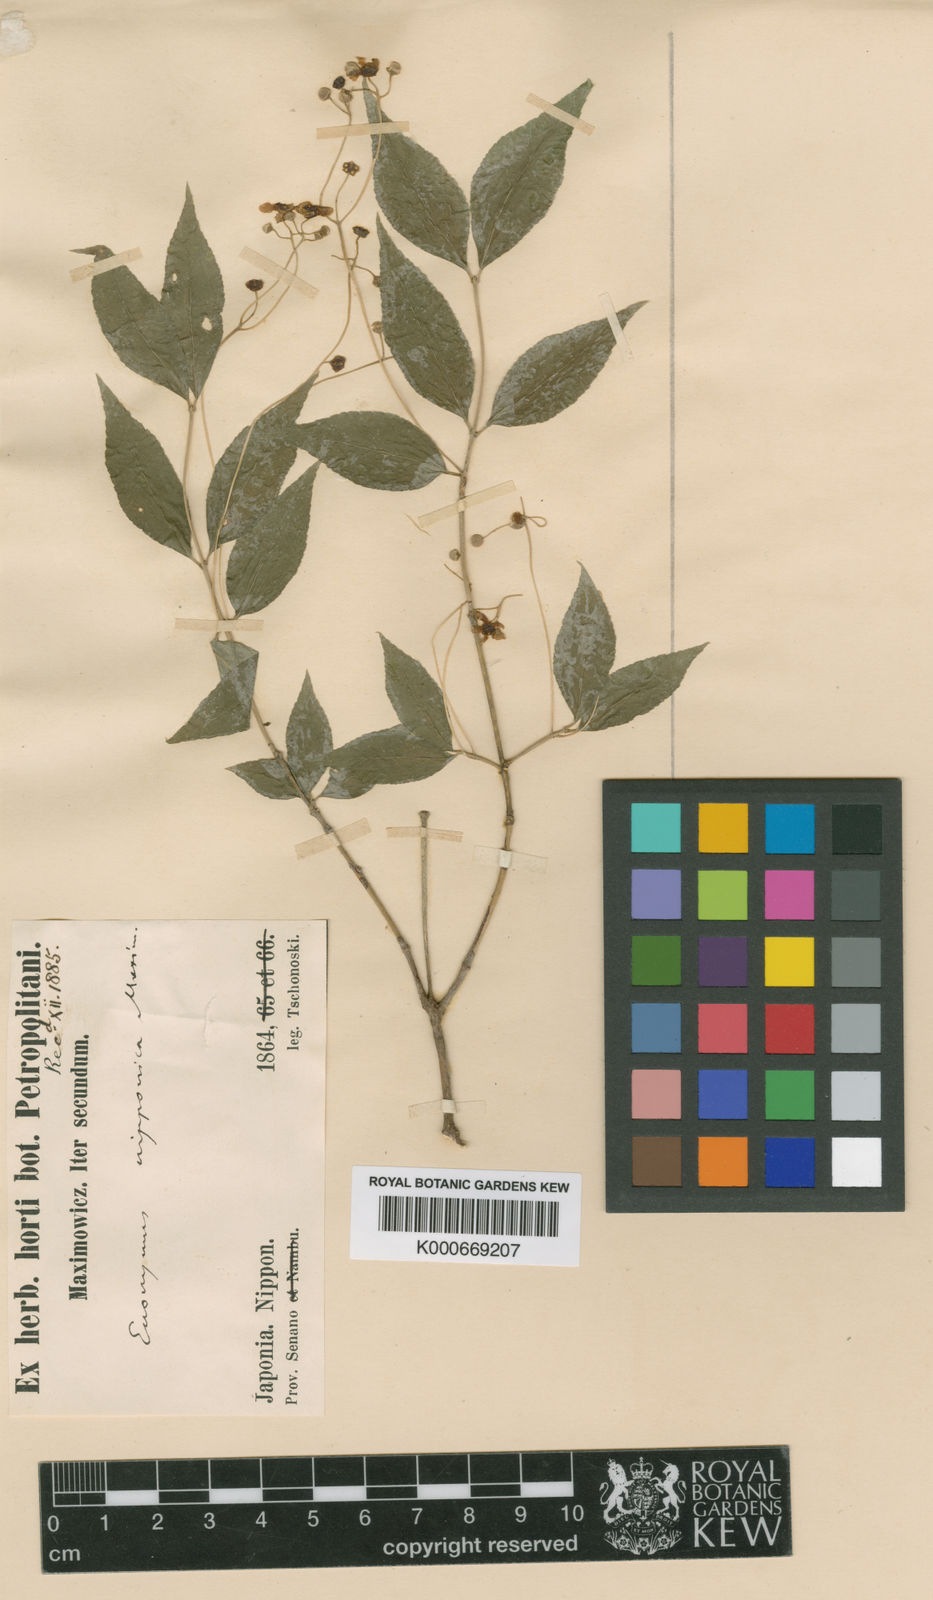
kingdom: Plantae
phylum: Tracheophyta
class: Magnoliopsida
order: Celastrales
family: Celastraceae
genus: Euonymus
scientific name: Euonymus oxyphyllus
